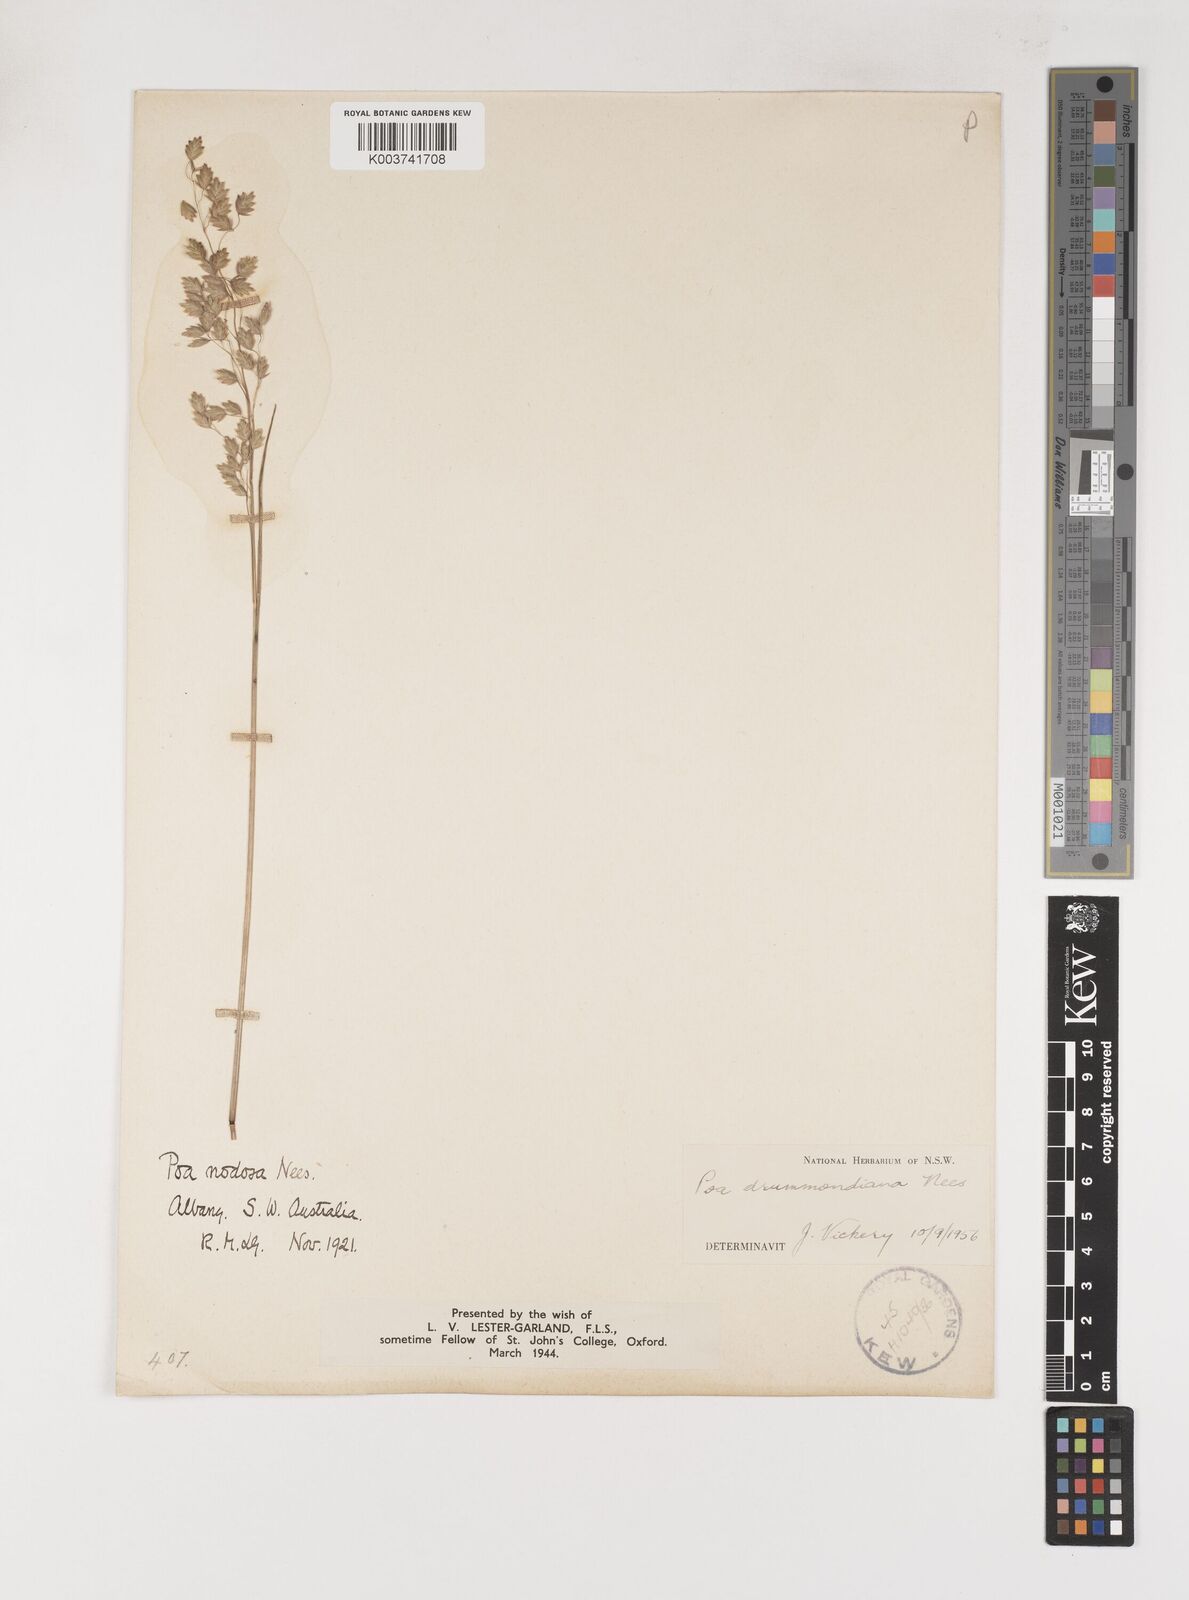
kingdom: Plantae
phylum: Tracheophyta
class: Liliopsida
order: Poales
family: Poaceae
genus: Poa
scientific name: Poa drummondiana
